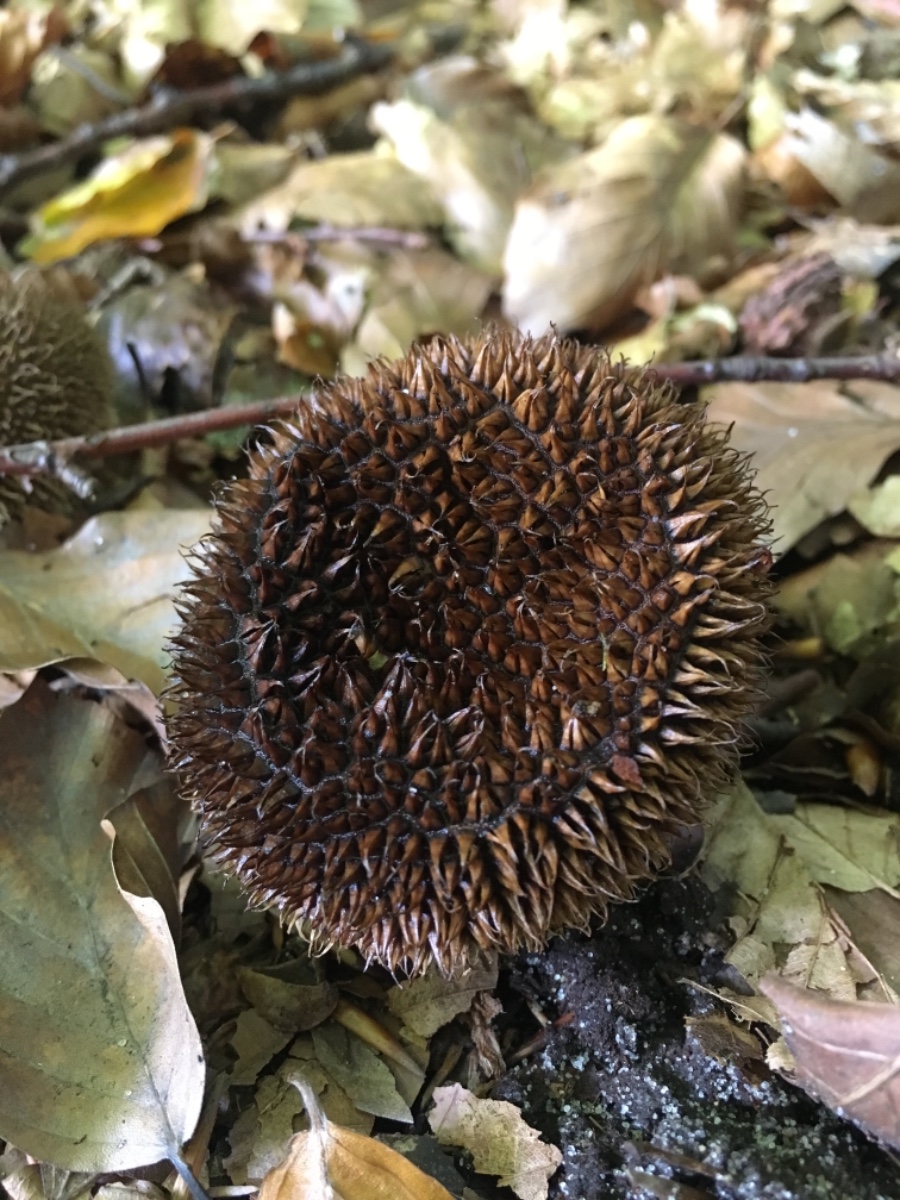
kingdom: Fungi
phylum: Basidiomycota
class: Agaricomycetes
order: Agaricales
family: Lycoperdaceae
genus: Lycoperdon
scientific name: Lycoperdon echinatum
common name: pindsvine-støvbold
